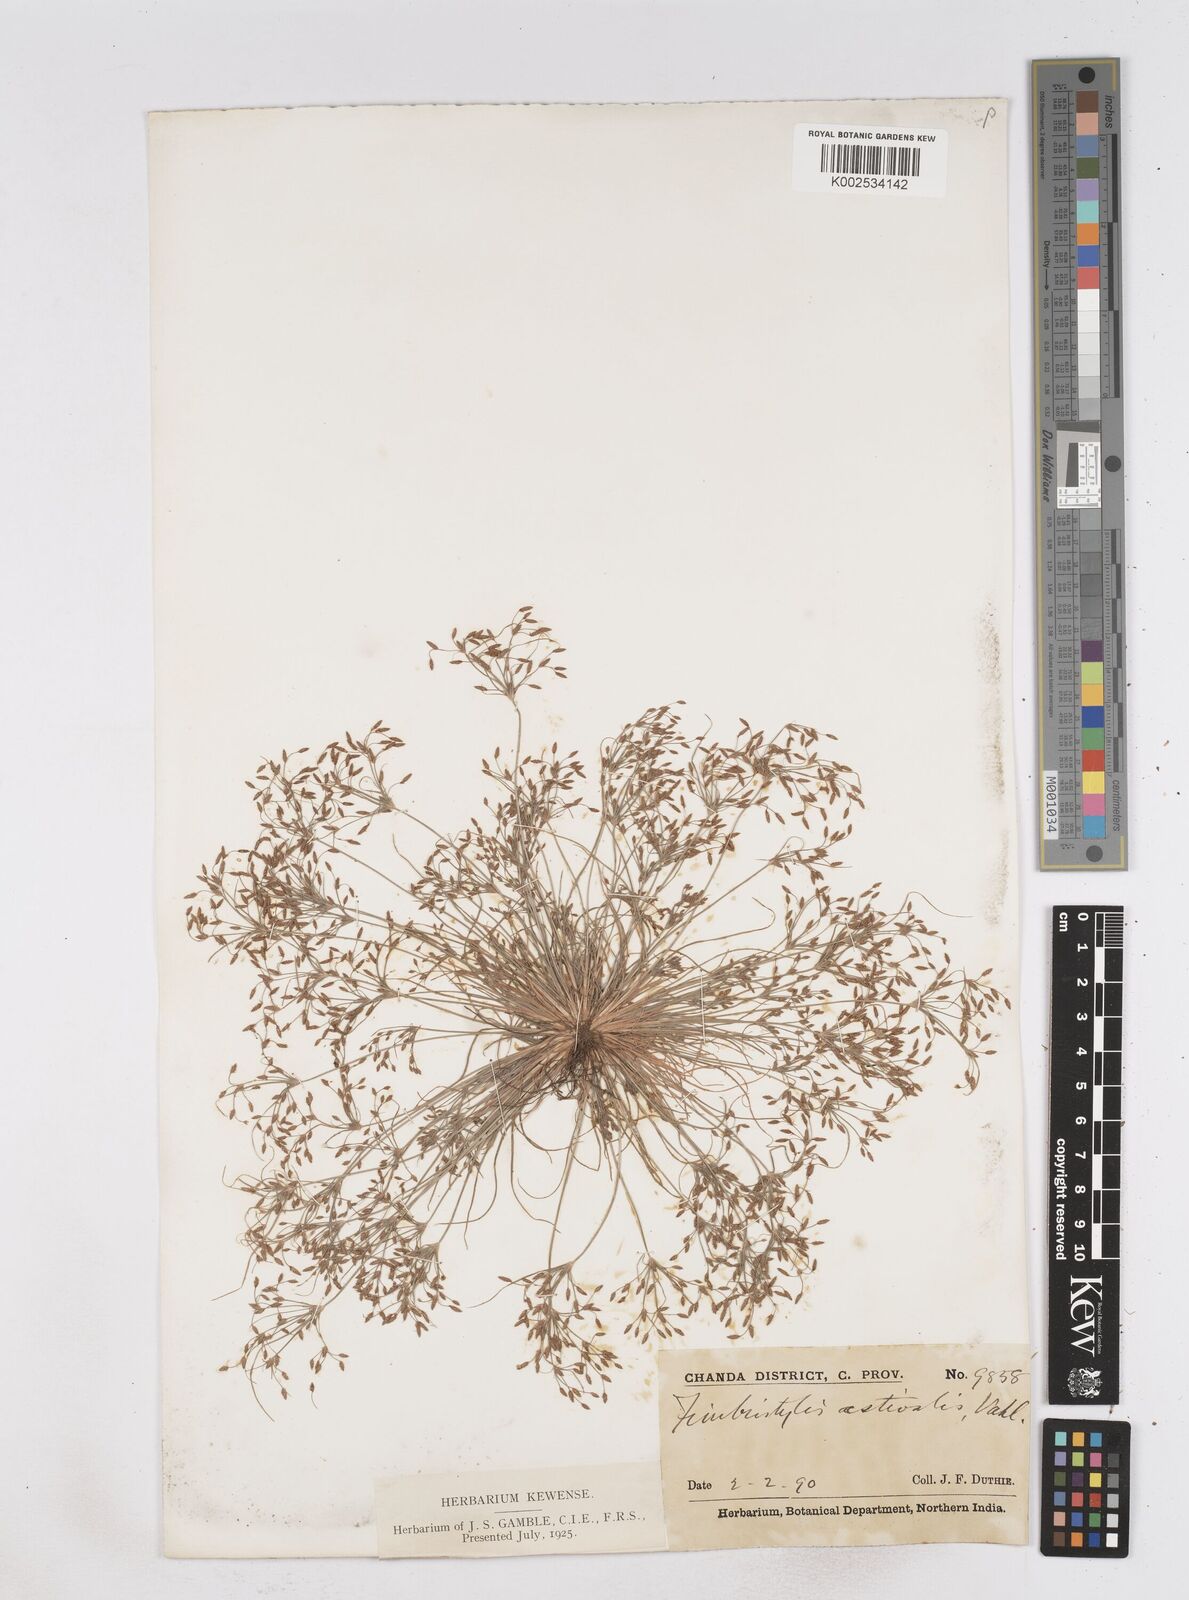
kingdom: Plantae
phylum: Tracheophyta
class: Liliopsida
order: Poales
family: Cyperaceae
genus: Fimbristylis
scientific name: Fimbristylis aestivalis
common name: Summer fimbry
